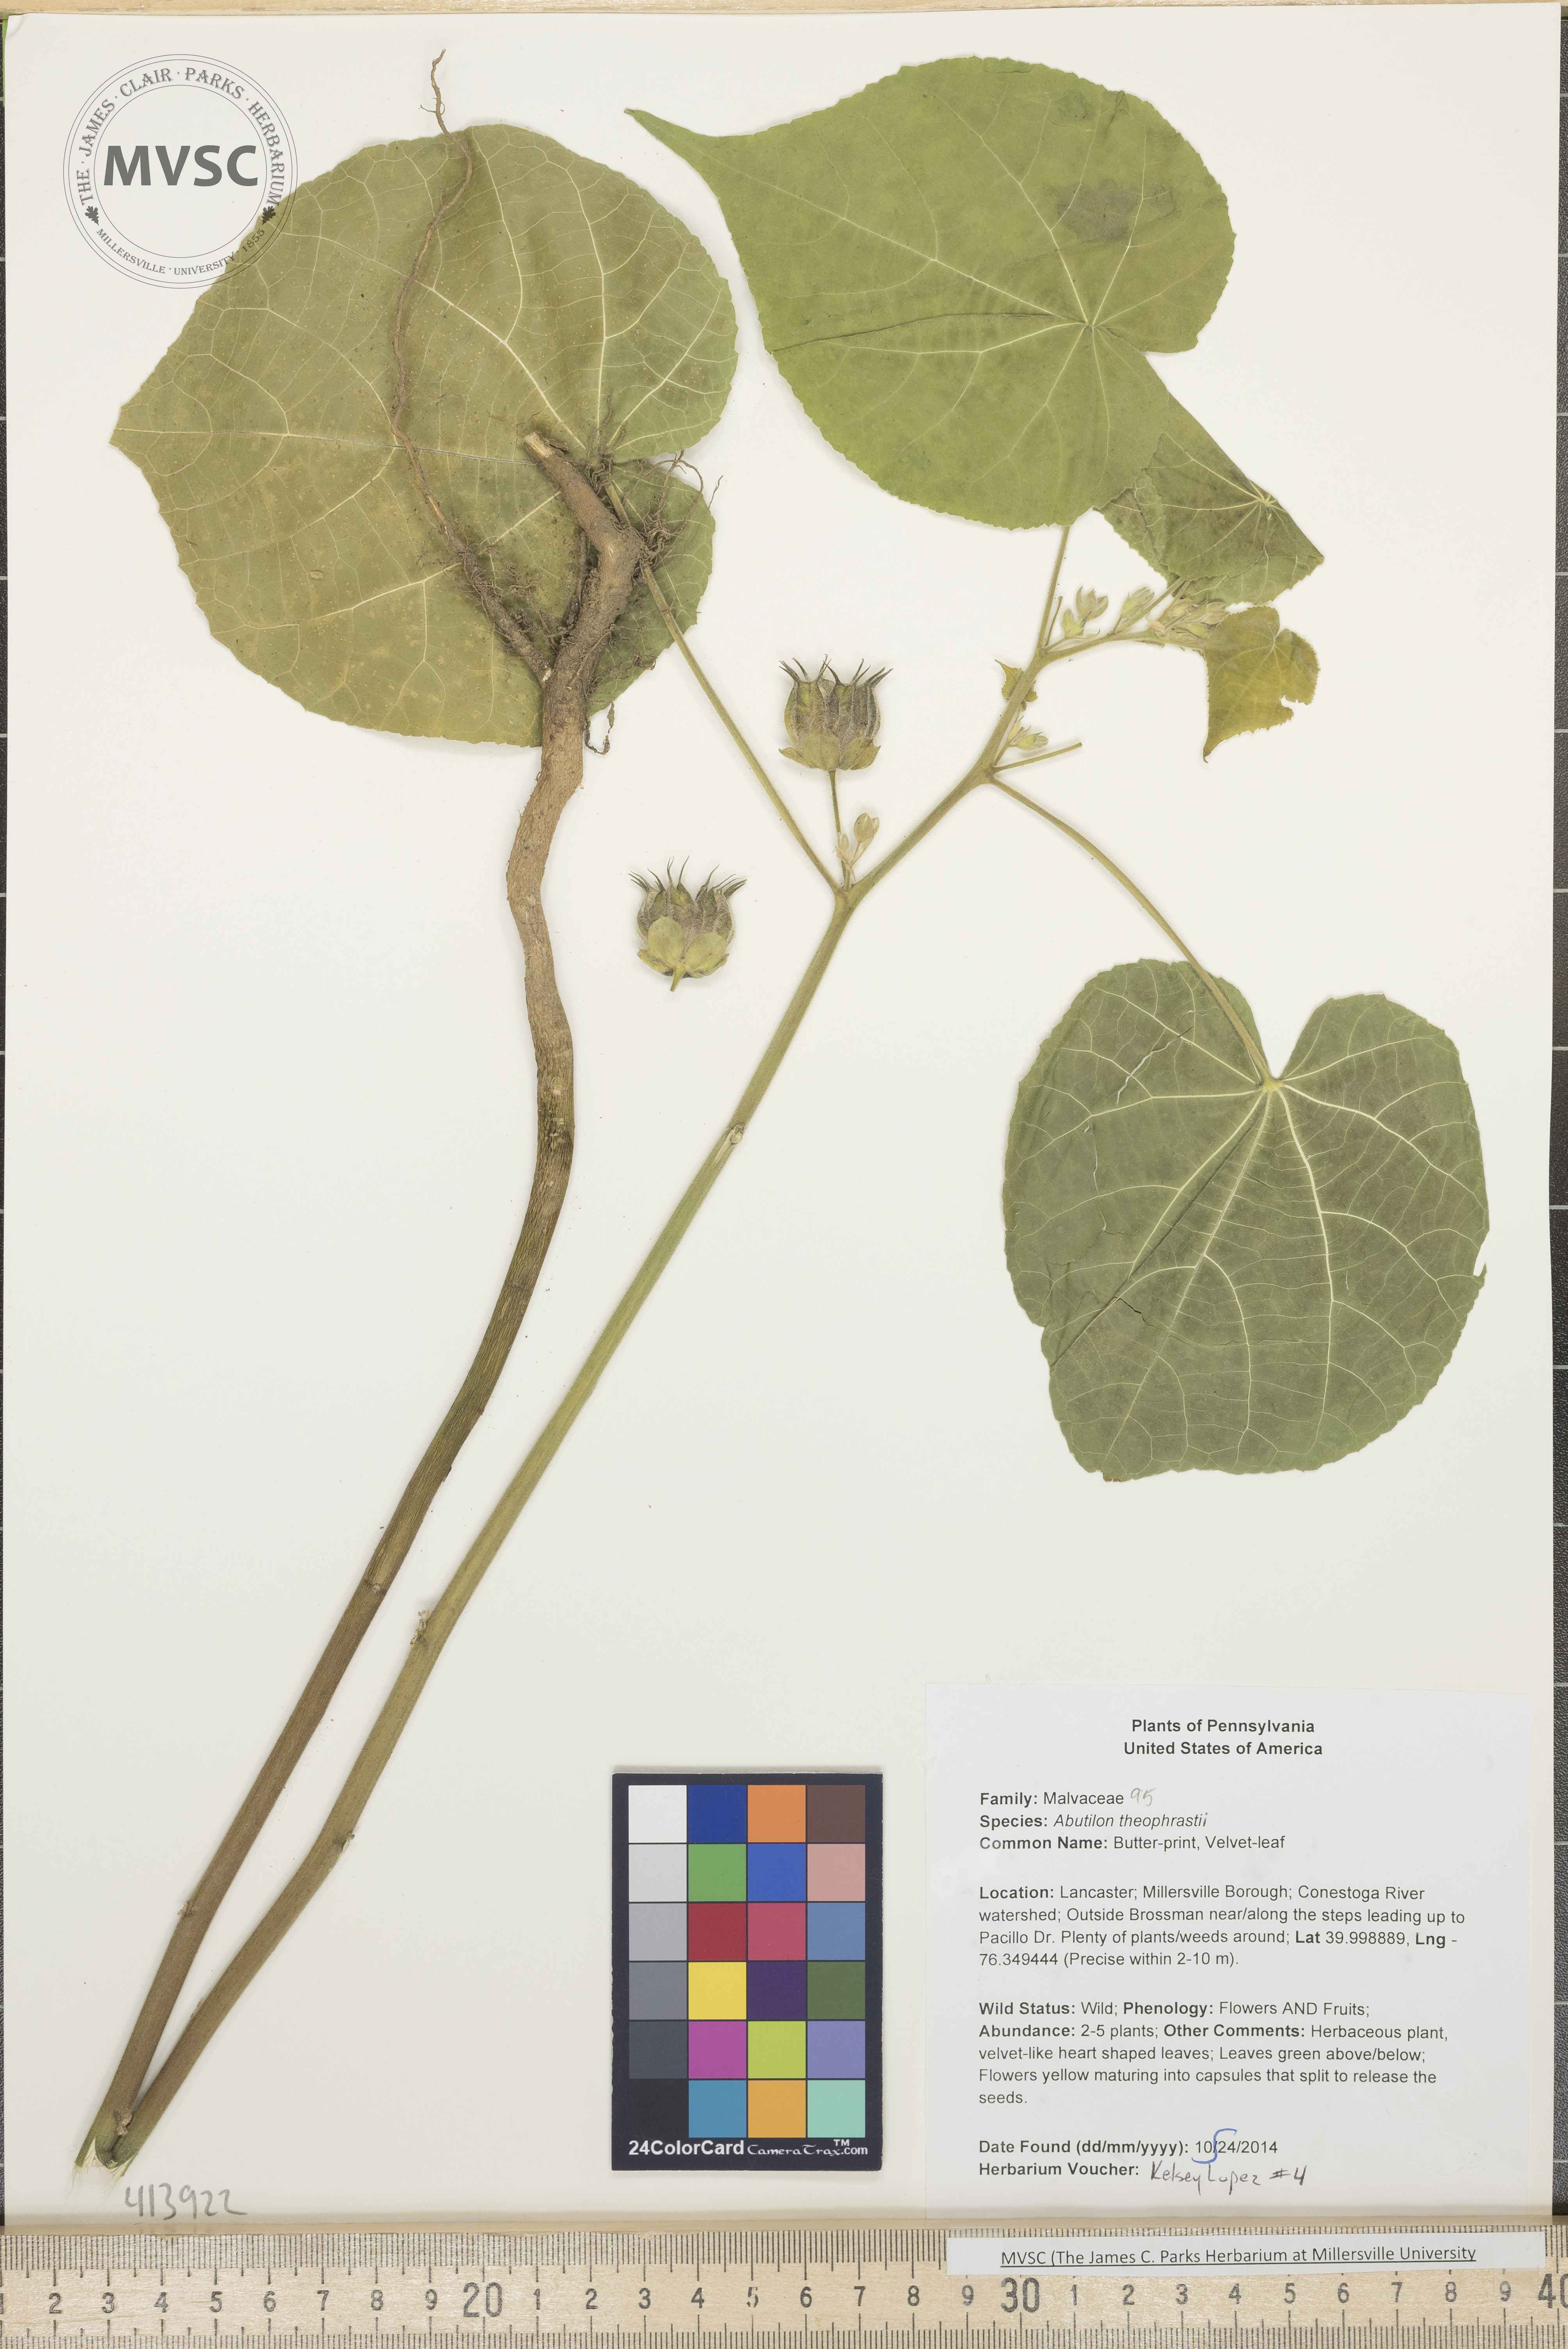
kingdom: Plantae
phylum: Tracheophyta
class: Magnoliopsida
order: Malvales
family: Malvaceae
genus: Abutilon
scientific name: Abutilon theophrasti
